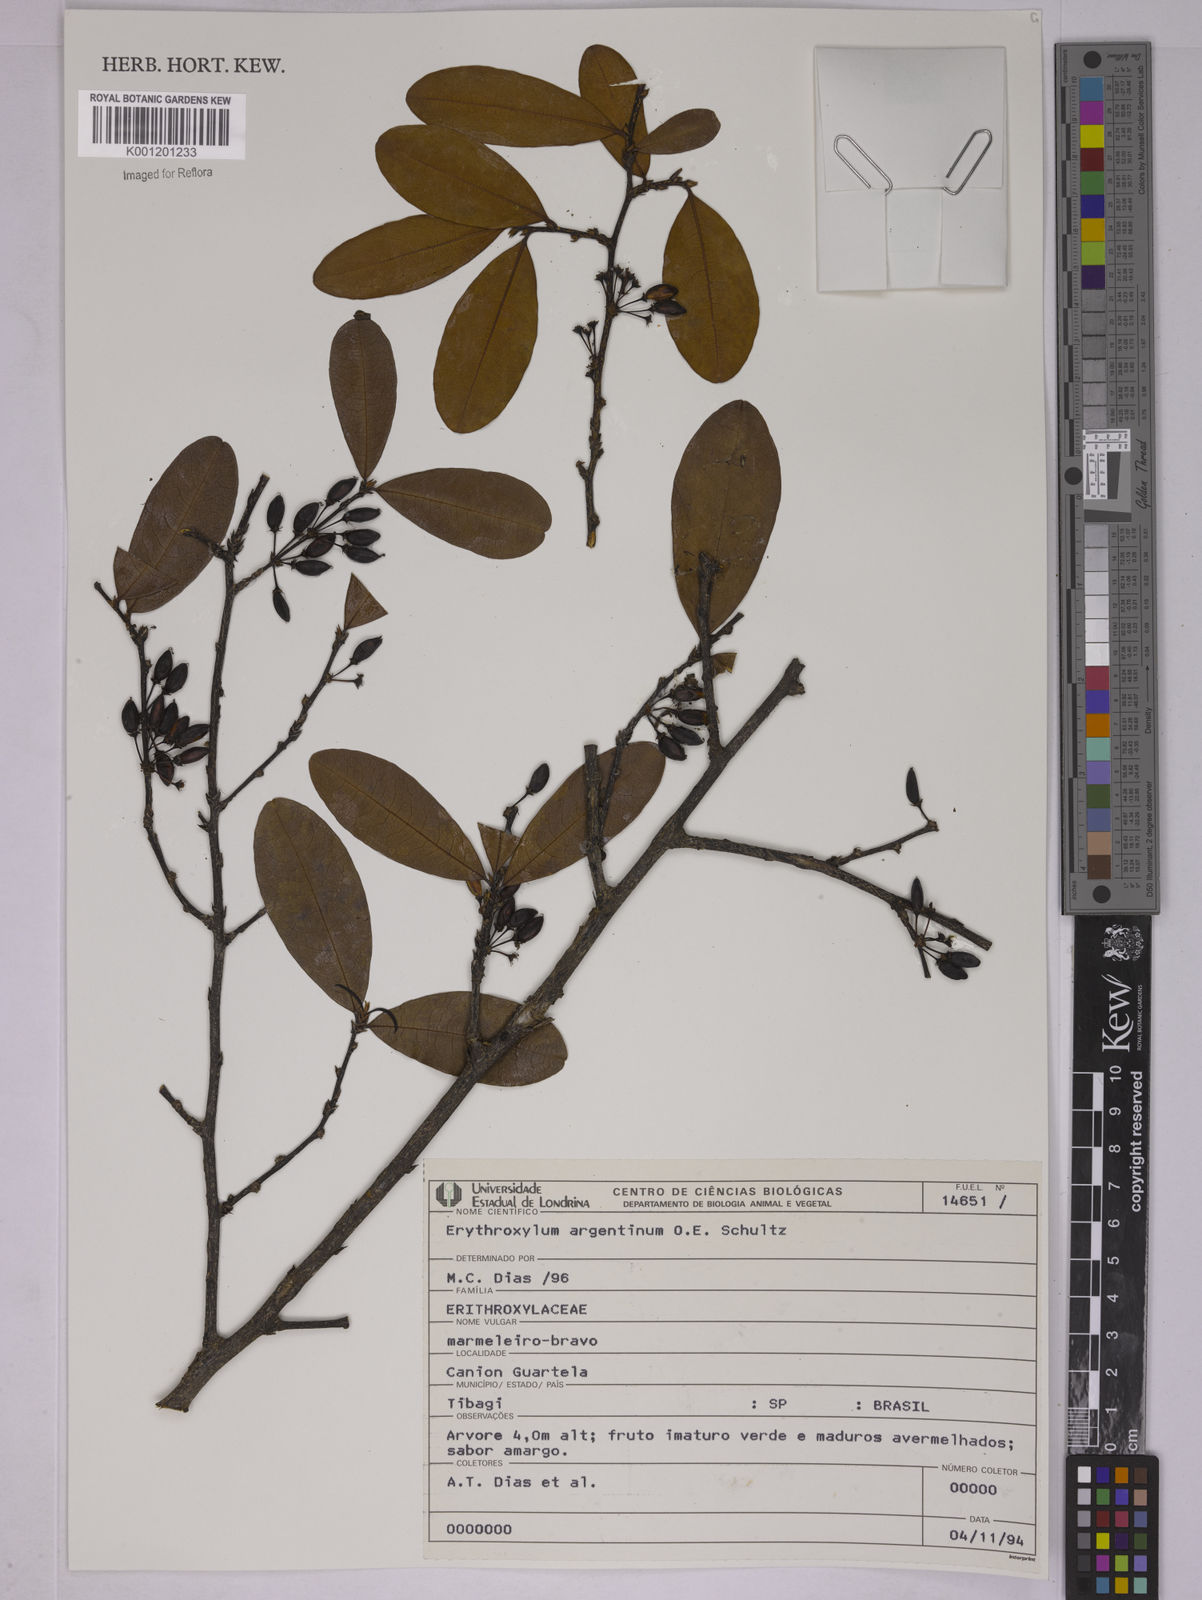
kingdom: Plantae
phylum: Tracheophyta
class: Magnoliopsida
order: Malpighiales
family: Erythroxylaceae
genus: Erythroxylum
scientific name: Erythroxylum argentinum
